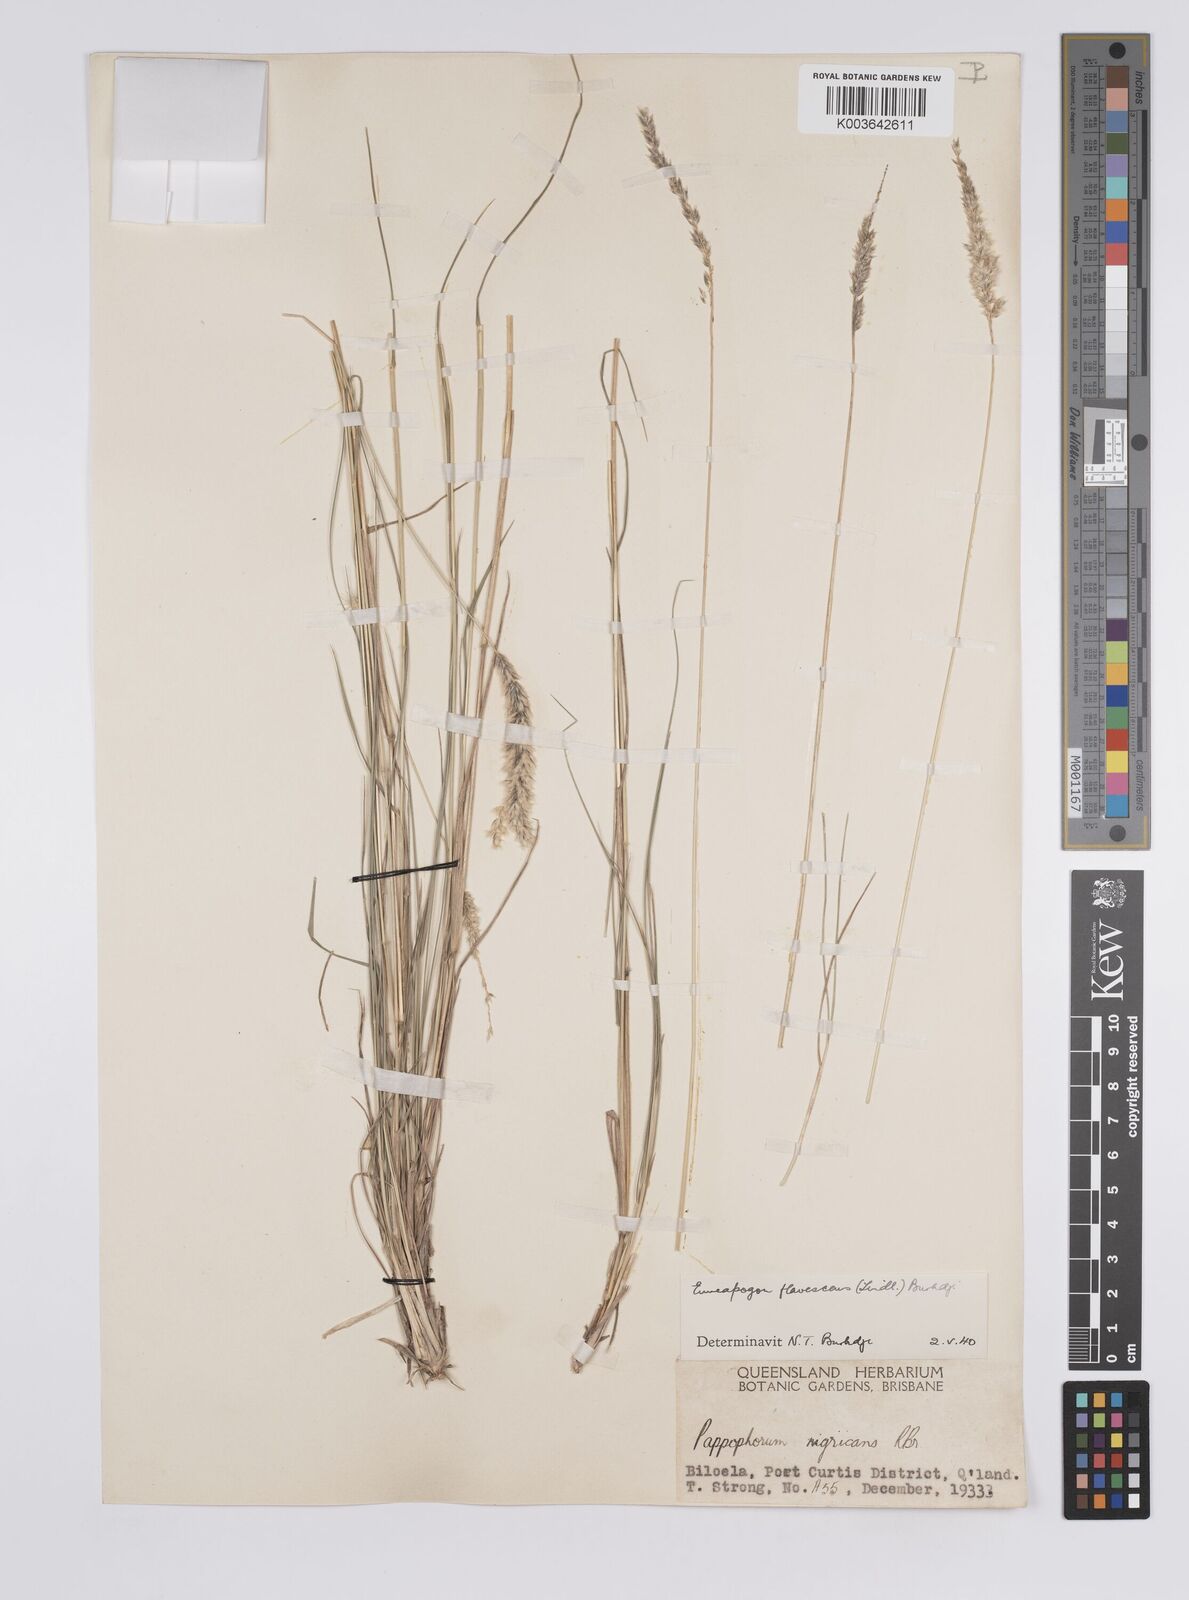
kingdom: Plantae
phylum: Tracheophyta
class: Liliopsida
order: Poales
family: Poaceae
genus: Enneapogon
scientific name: Enneapogon truncatus
